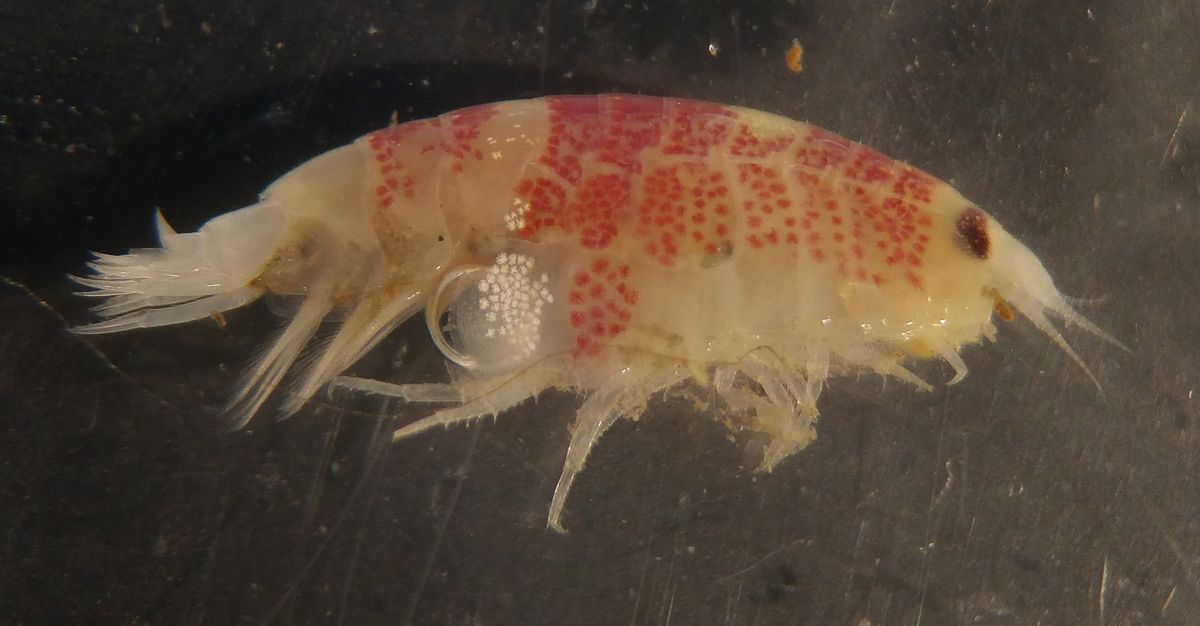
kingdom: Animalia
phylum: Arthropoda
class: Malacostraca
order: Amphipoda
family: Lysianassidae
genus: Socarnes
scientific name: Socarnes vahlii
